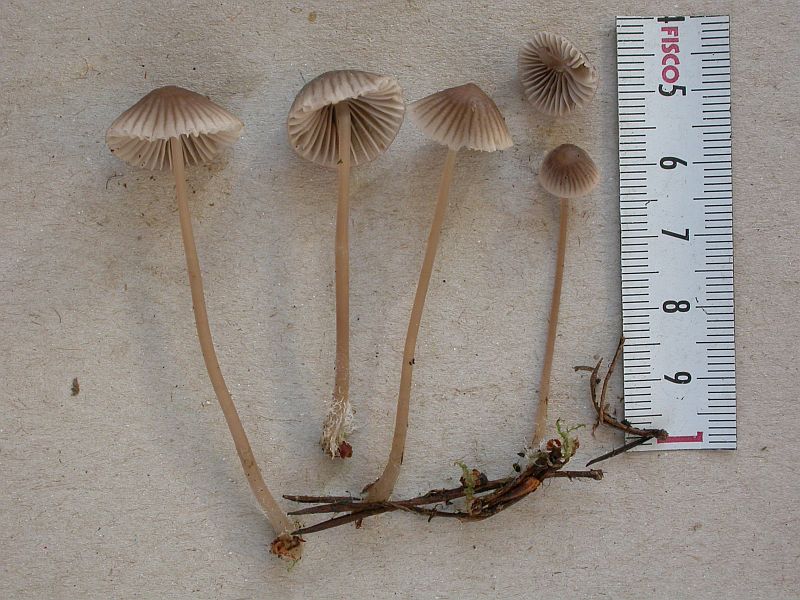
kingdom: Fungi
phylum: Basidiomycota
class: Agaricomycetes
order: Agaricales
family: Mycenaceae
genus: Mycena
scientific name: Mycena capillaripes
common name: nåle-huesvamp
